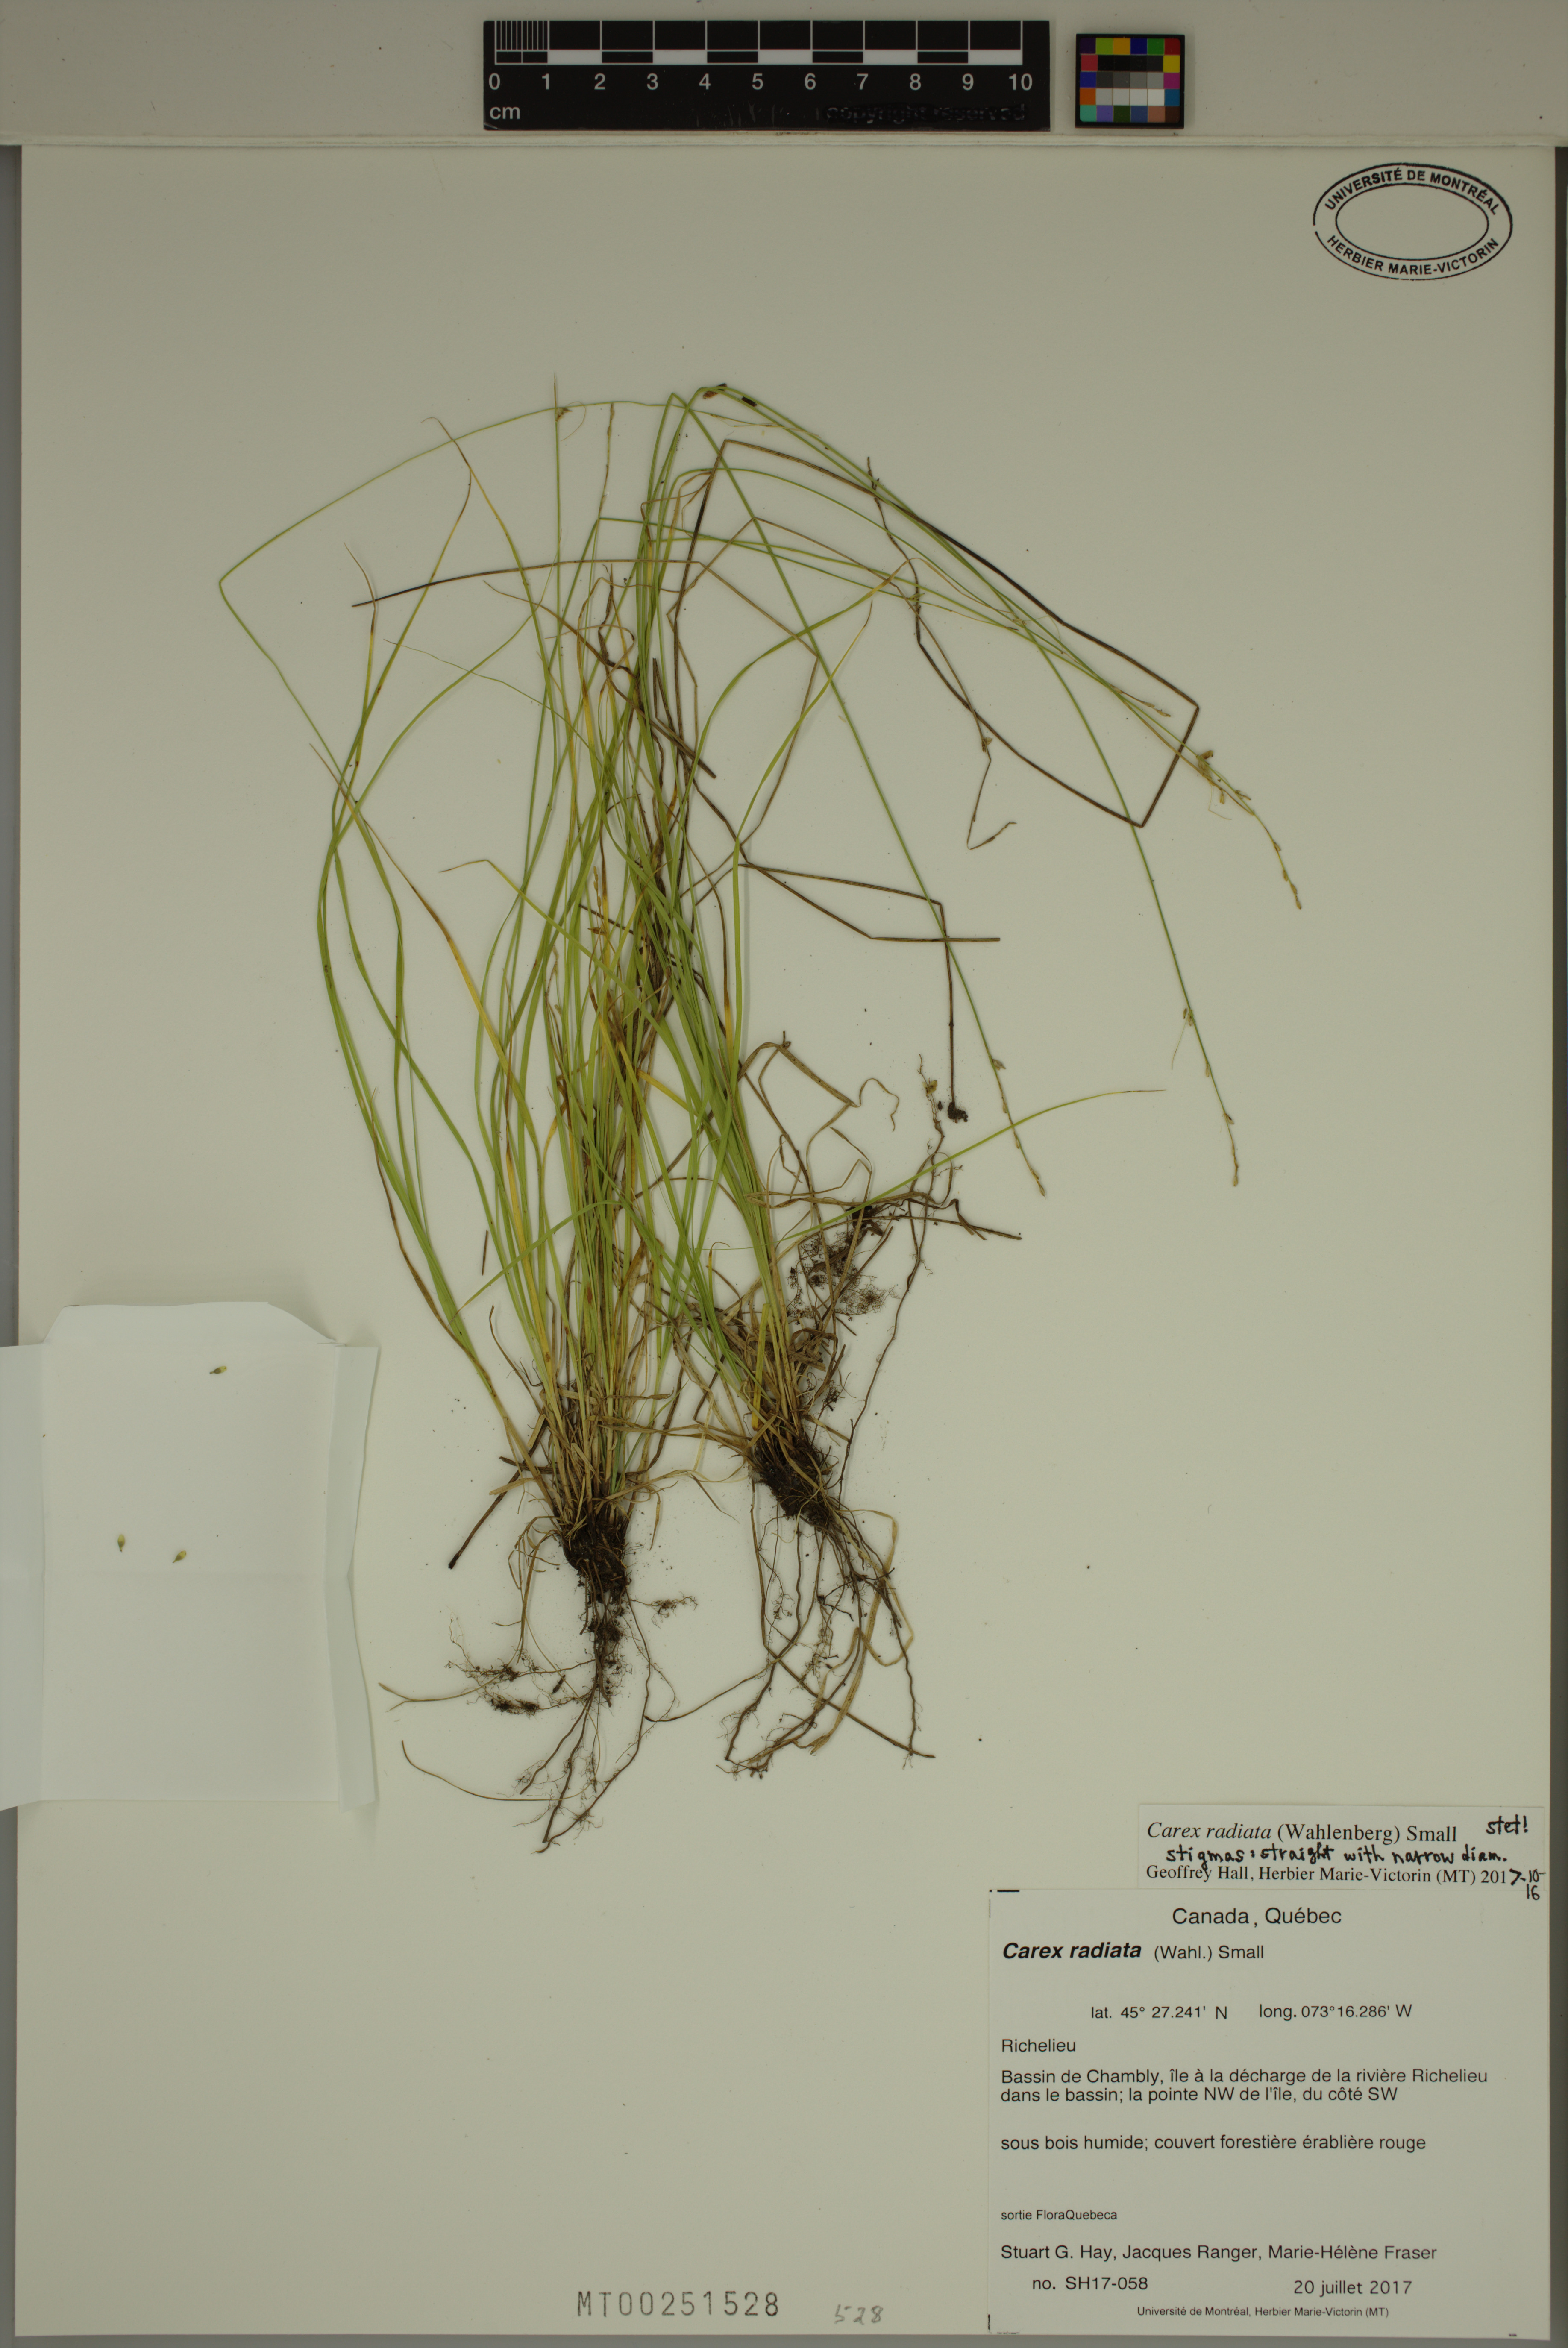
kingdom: Plantae
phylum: Tracheophyta
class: Liliopsida
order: Poales
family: Cyperaceae
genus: Carex
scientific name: Carex radiata
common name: Eastern star sedge
